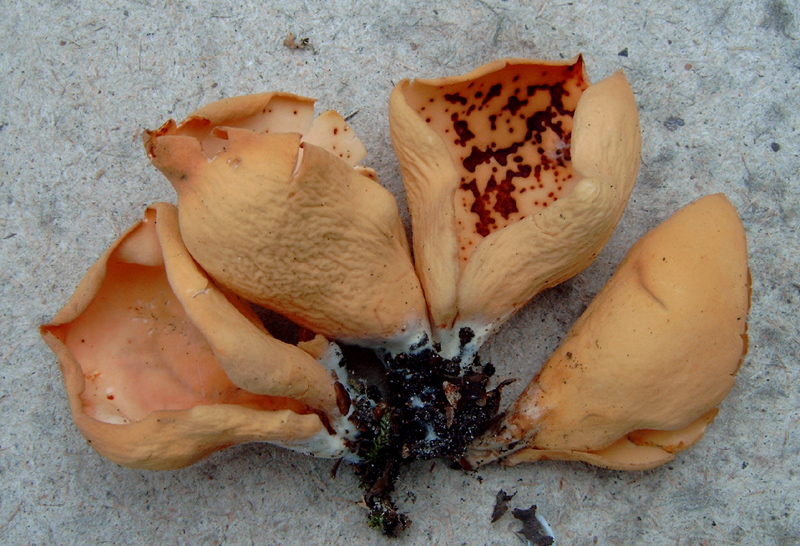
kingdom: Fungi
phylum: Ascomycota
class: Pezizomycetes
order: Pezizales
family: Otideaceae
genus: Otidea
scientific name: Otidea onotica
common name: æsel-ørebæger
